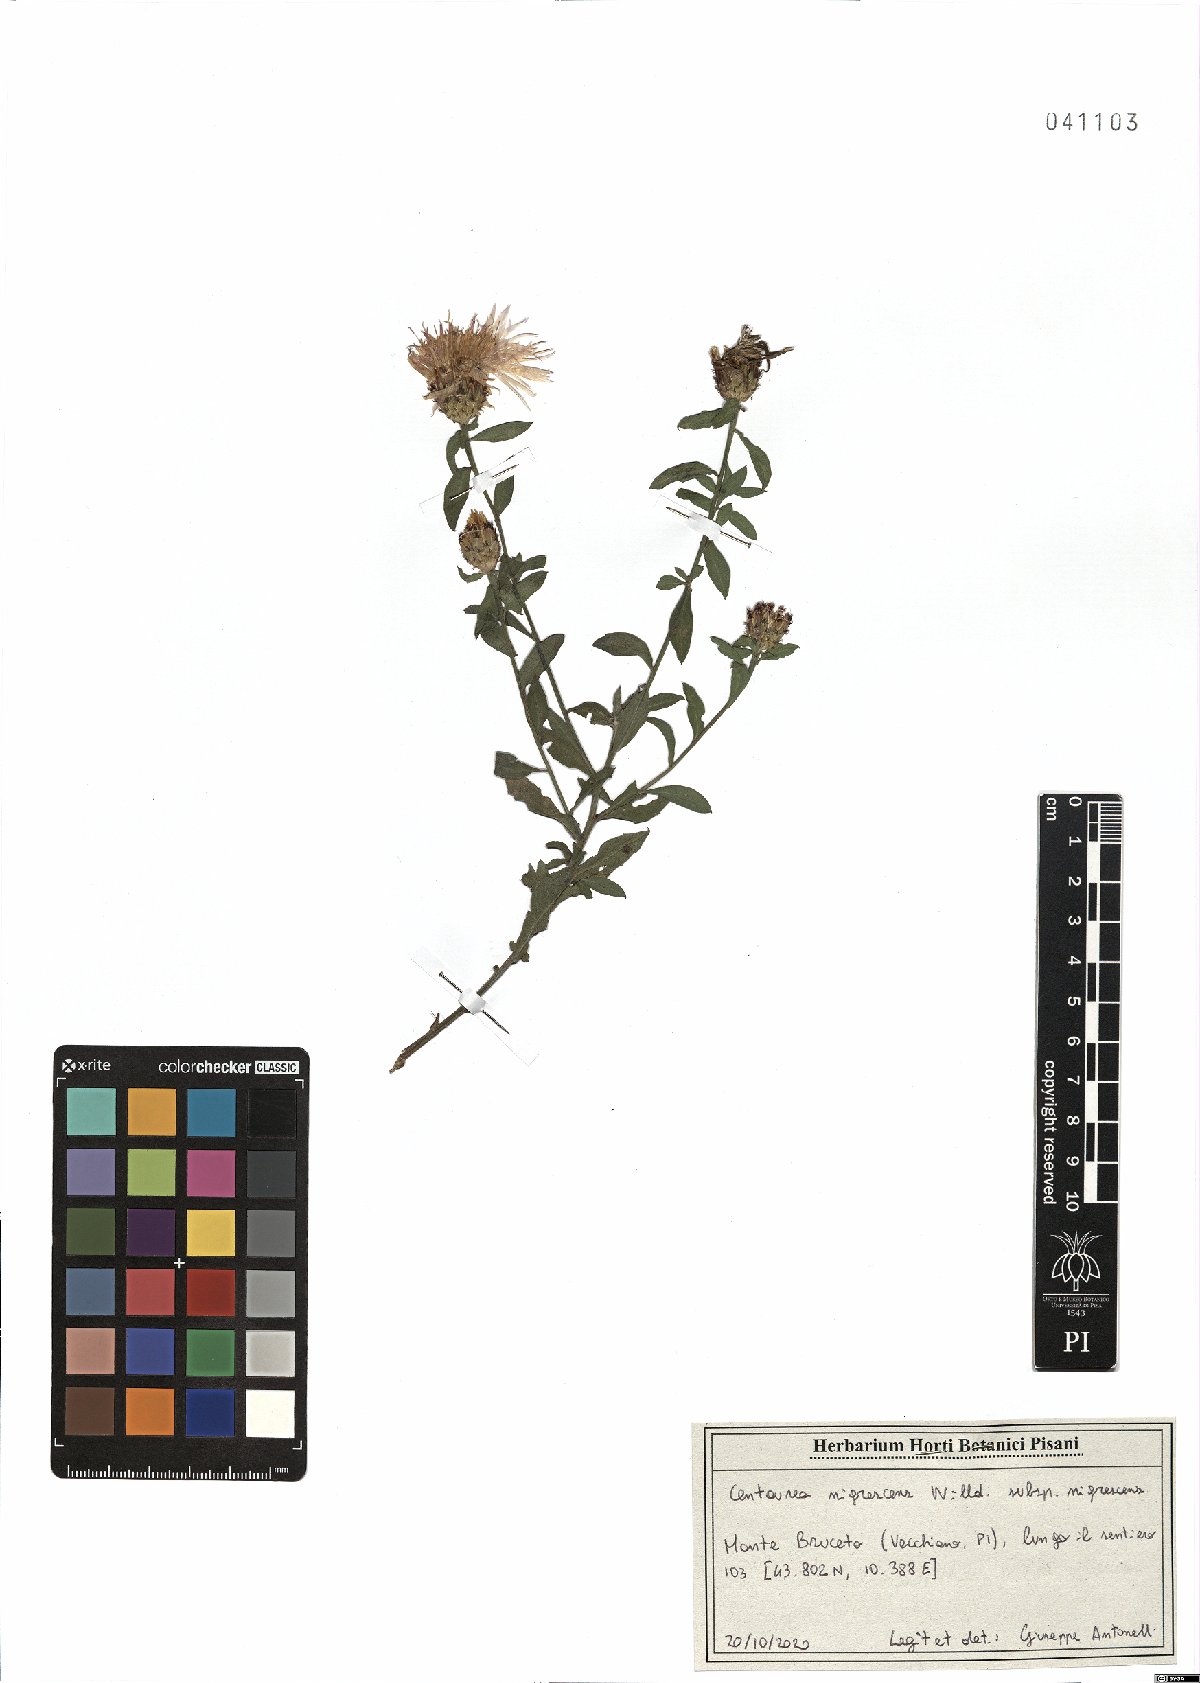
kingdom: Plantae
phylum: Tracheophyta
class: Magnoliopsida
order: Asterales
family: Asteraceae
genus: Centaurea
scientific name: Centaurea nigrescens
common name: Tyrol knapweed
